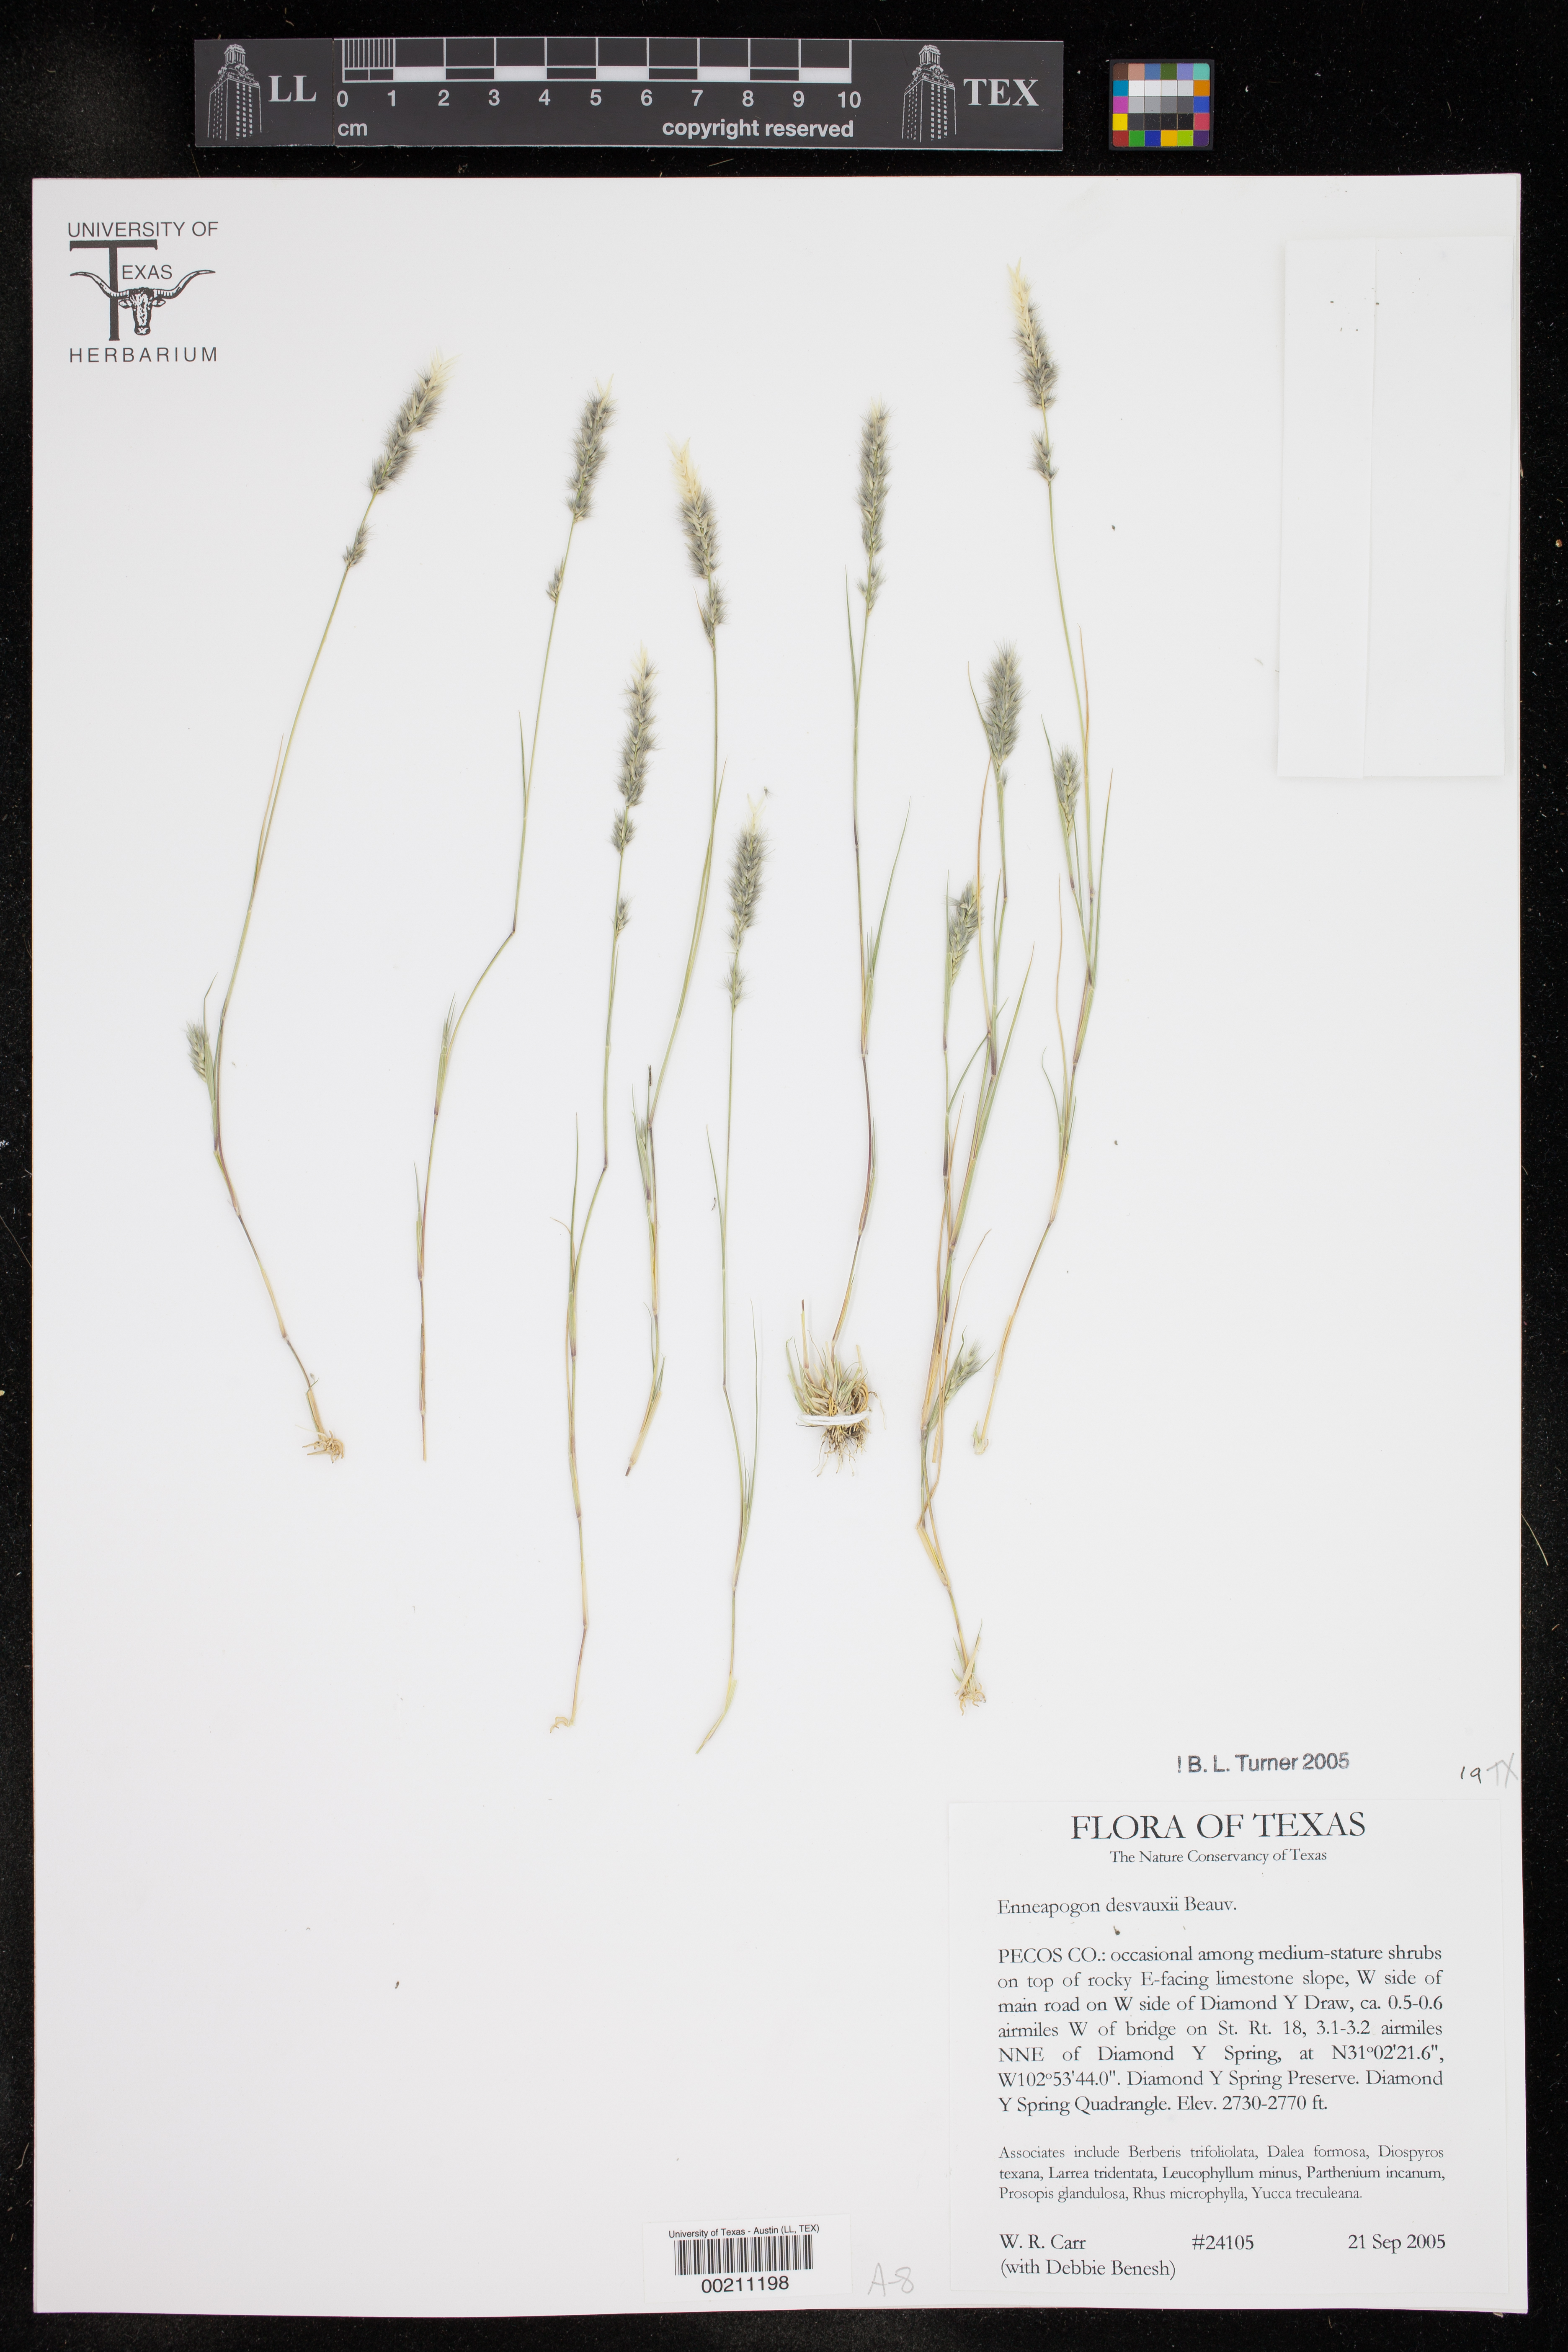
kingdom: Plantae
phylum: Tracheophyta
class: Liliopsida
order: Poales
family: Poaceae
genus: Enneapogon
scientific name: Enneapogon desvauxii
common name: Feather pappus grass
